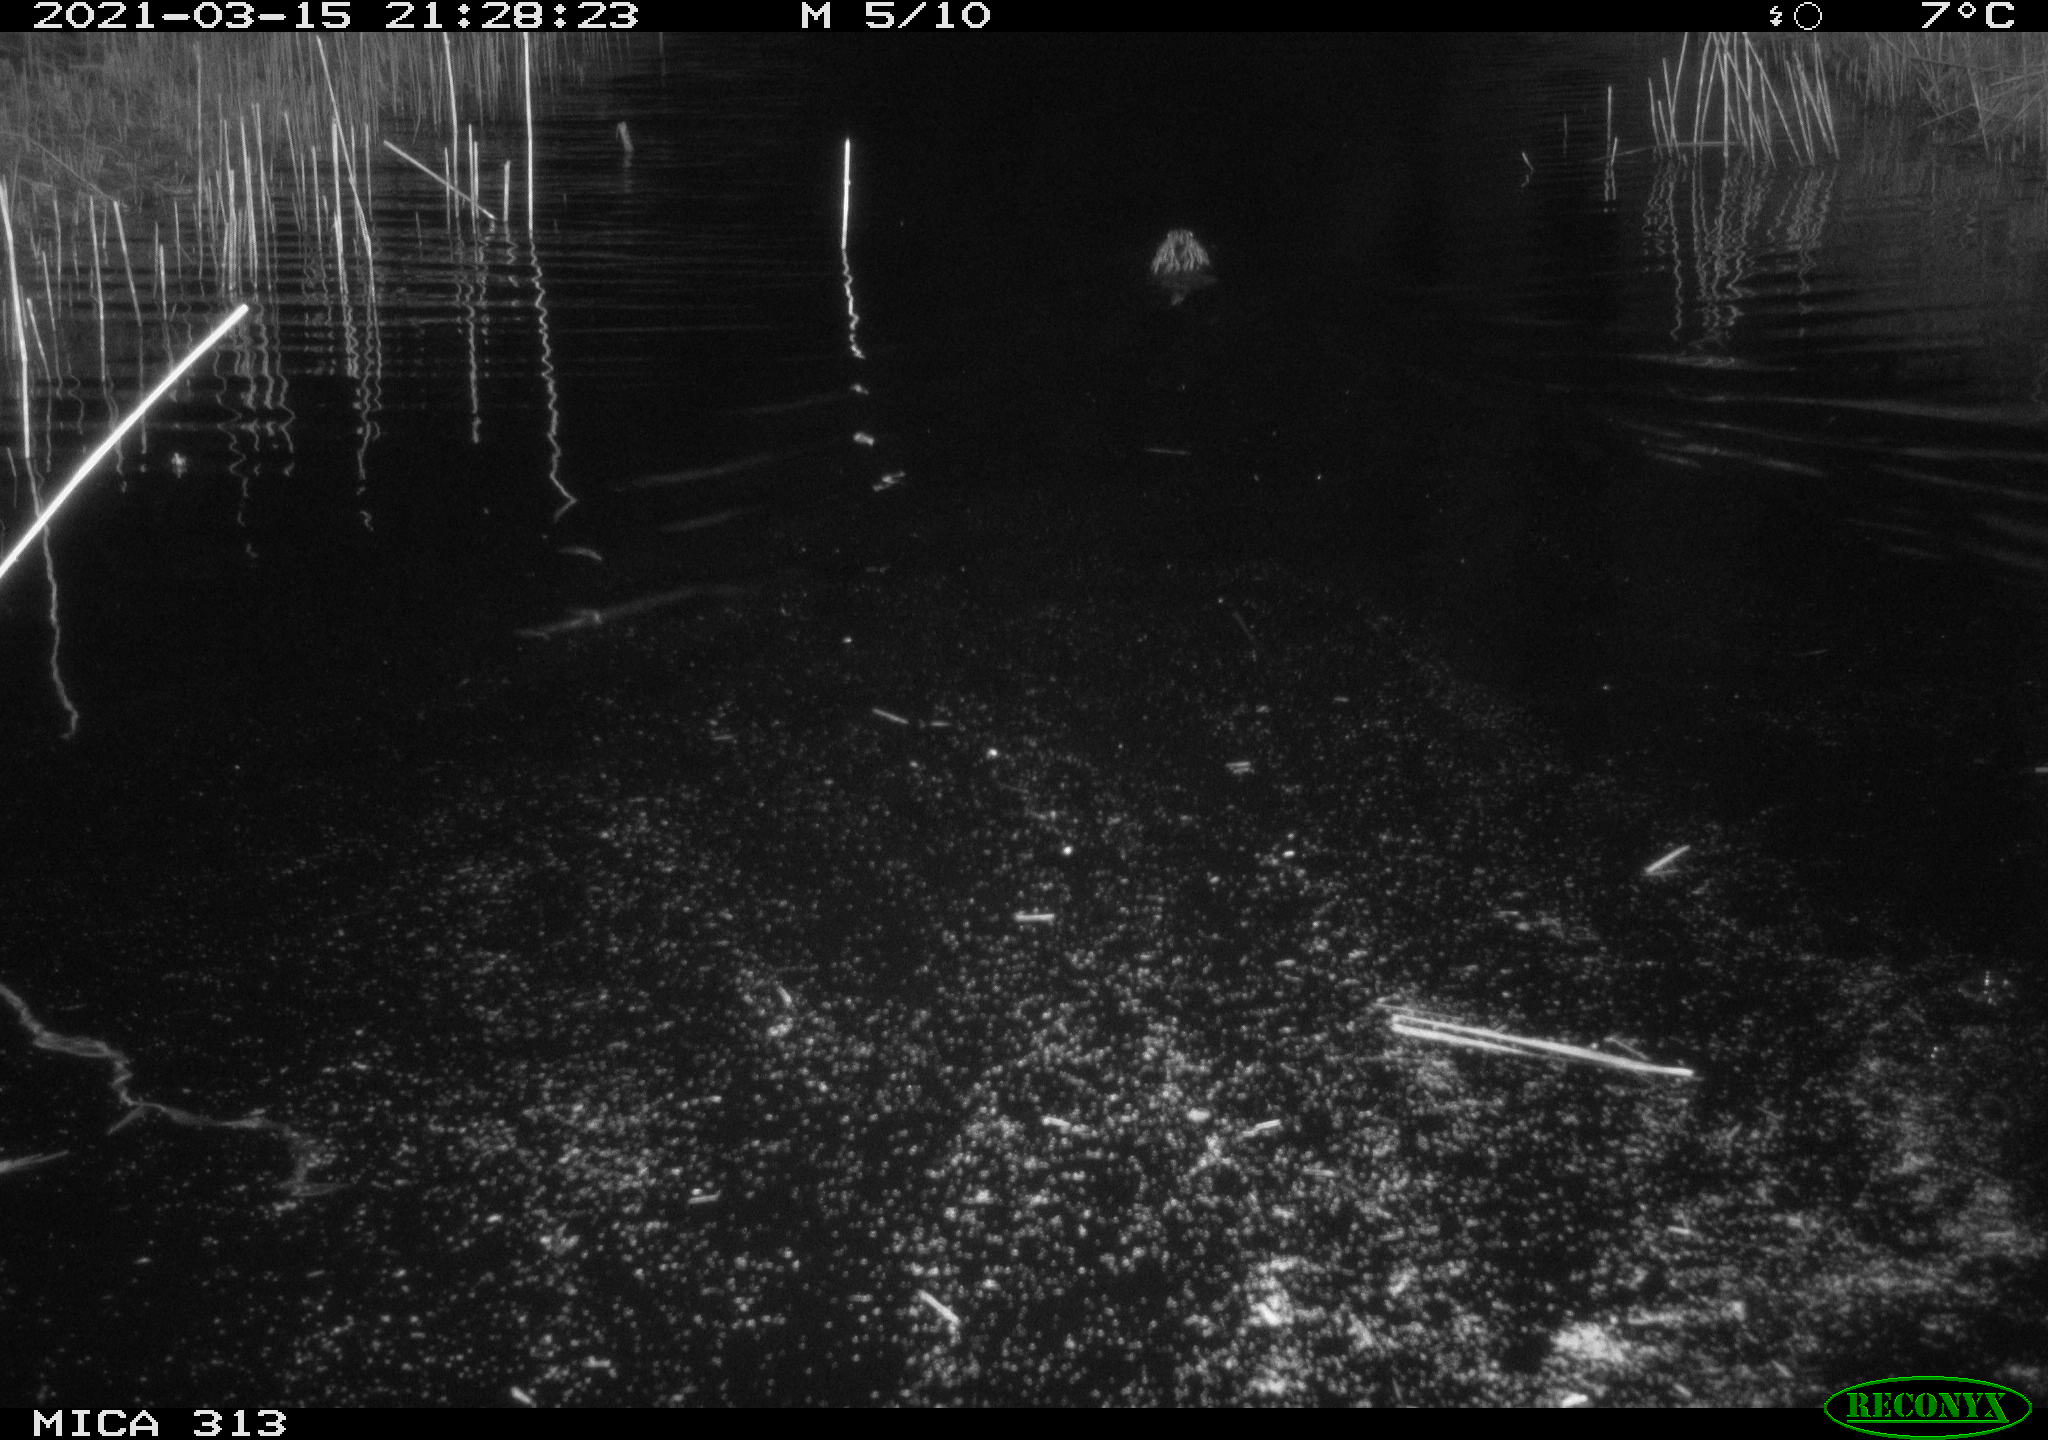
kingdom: Animalia
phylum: Chordata
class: Mammalia
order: Rodentia
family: Cricetidae
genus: Ondatra
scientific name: Ondatra zibethicus
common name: Muskrat
